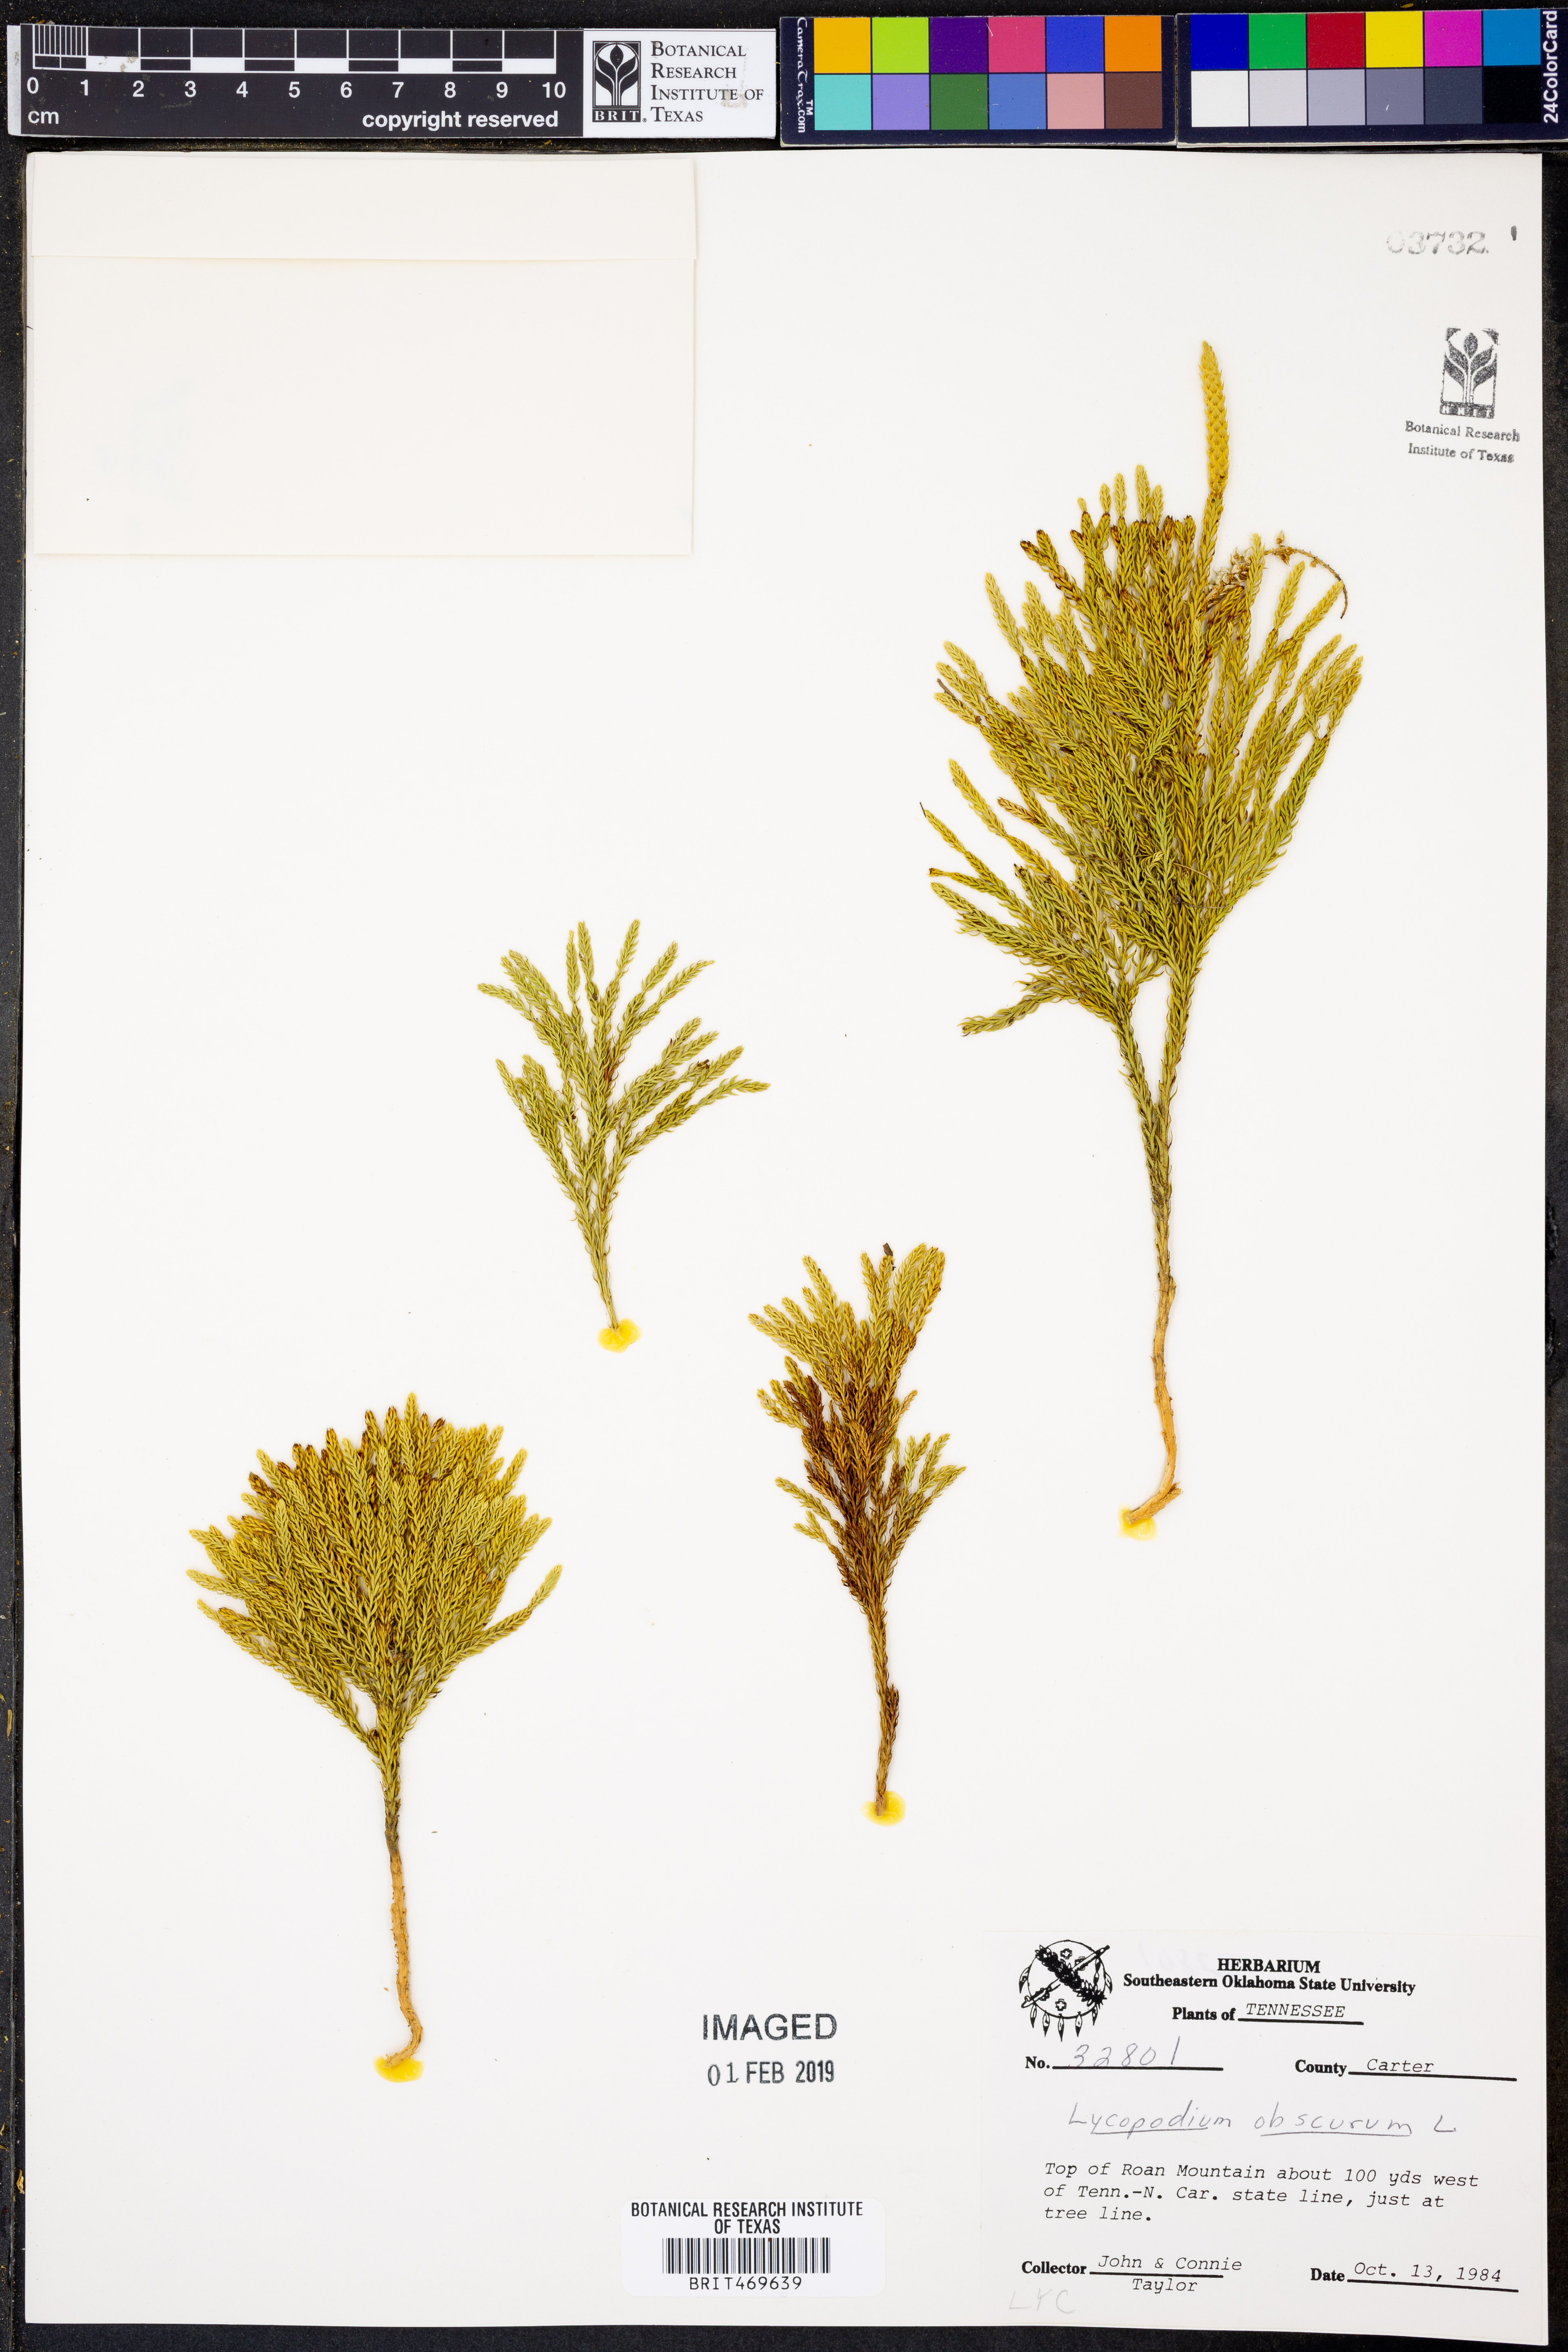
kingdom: Plantae
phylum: Tracheophyta
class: Lycopodiopsida
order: Lycopodiales
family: Lycopodiaceae
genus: Dendrolycopodium
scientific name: Dendrolycopodium obscurum
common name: Common ground-pine
